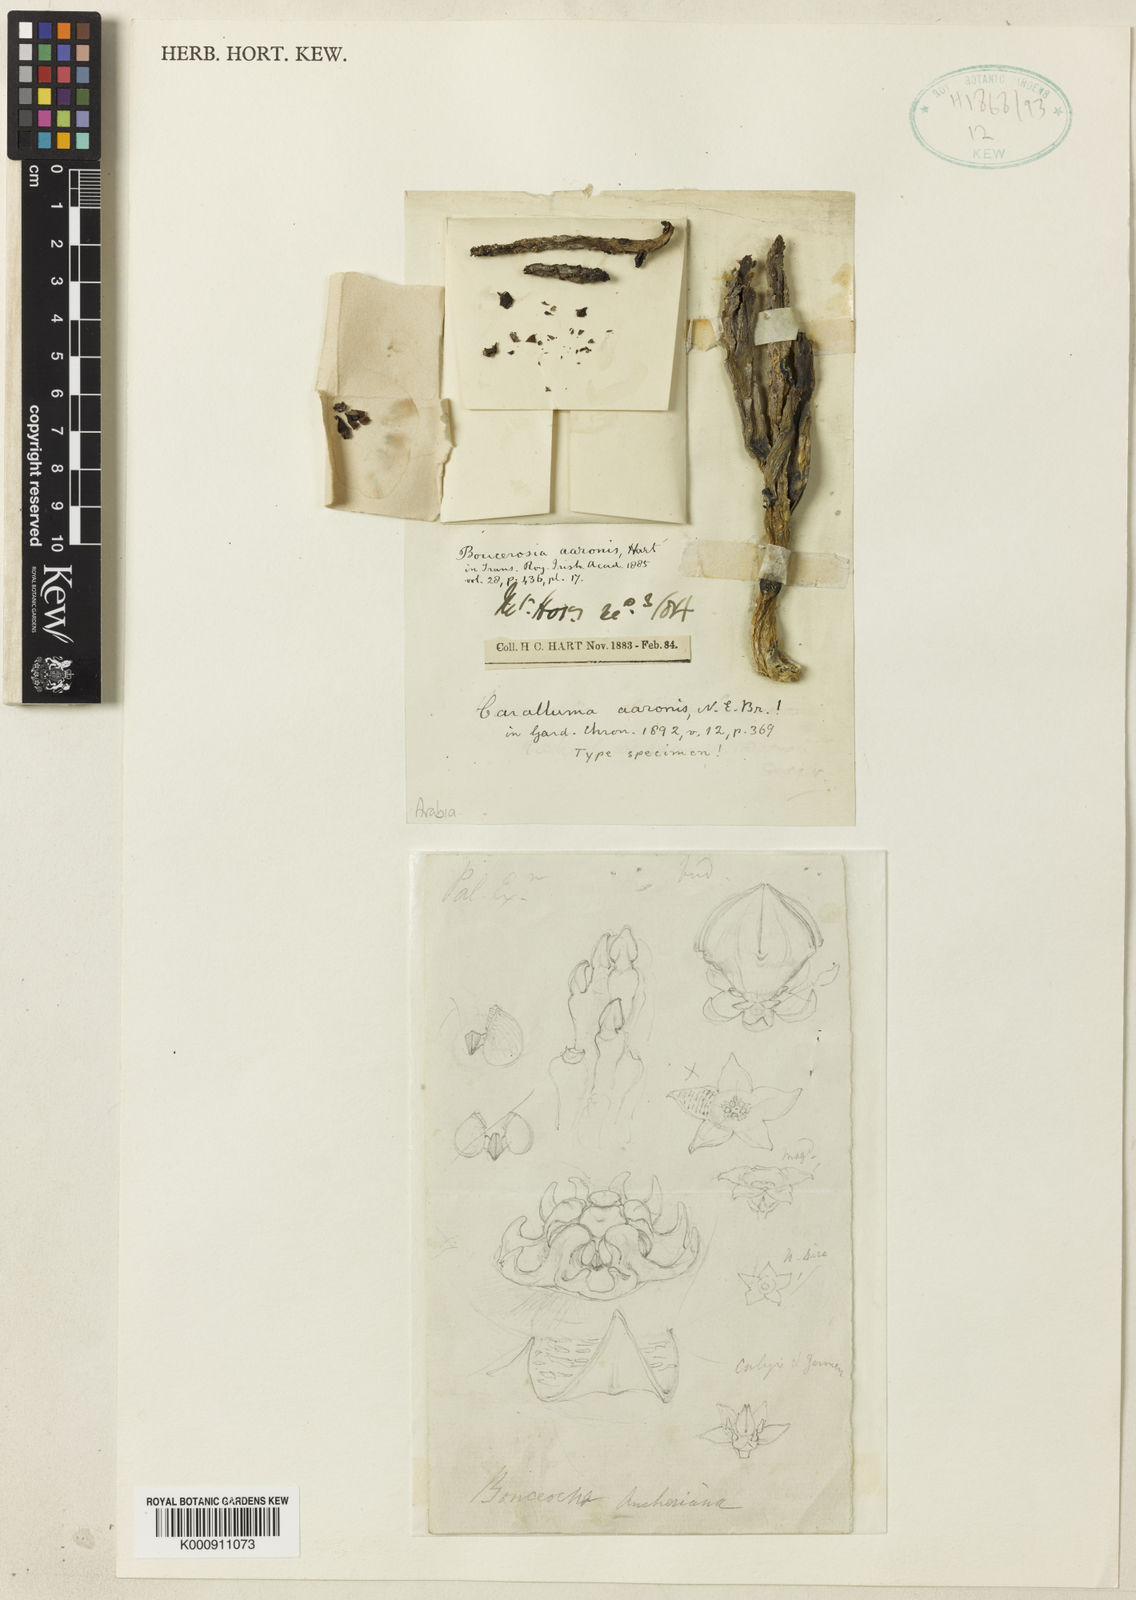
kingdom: Plantae
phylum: Tracheophyta
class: Magnoliopsida
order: Gentianales
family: Apocynaceae
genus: Ceropegia
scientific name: Ceropegia europaea
